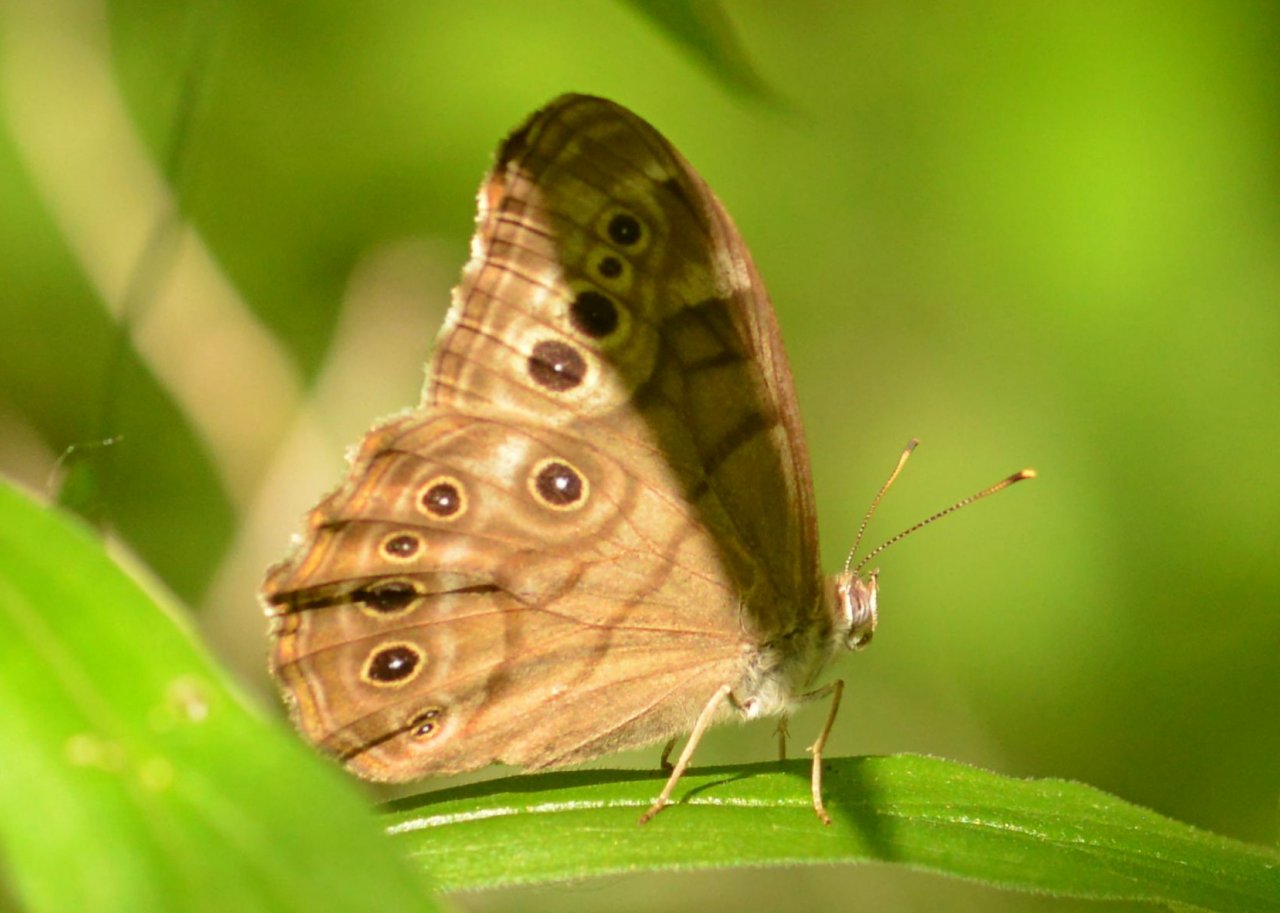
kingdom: Animalia
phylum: Arthropoda
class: Insecta
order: Lepidoptera
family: Nymphalidae
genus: Lethe
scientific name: Lethe anthedon
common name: Northern Pearly-Eye
